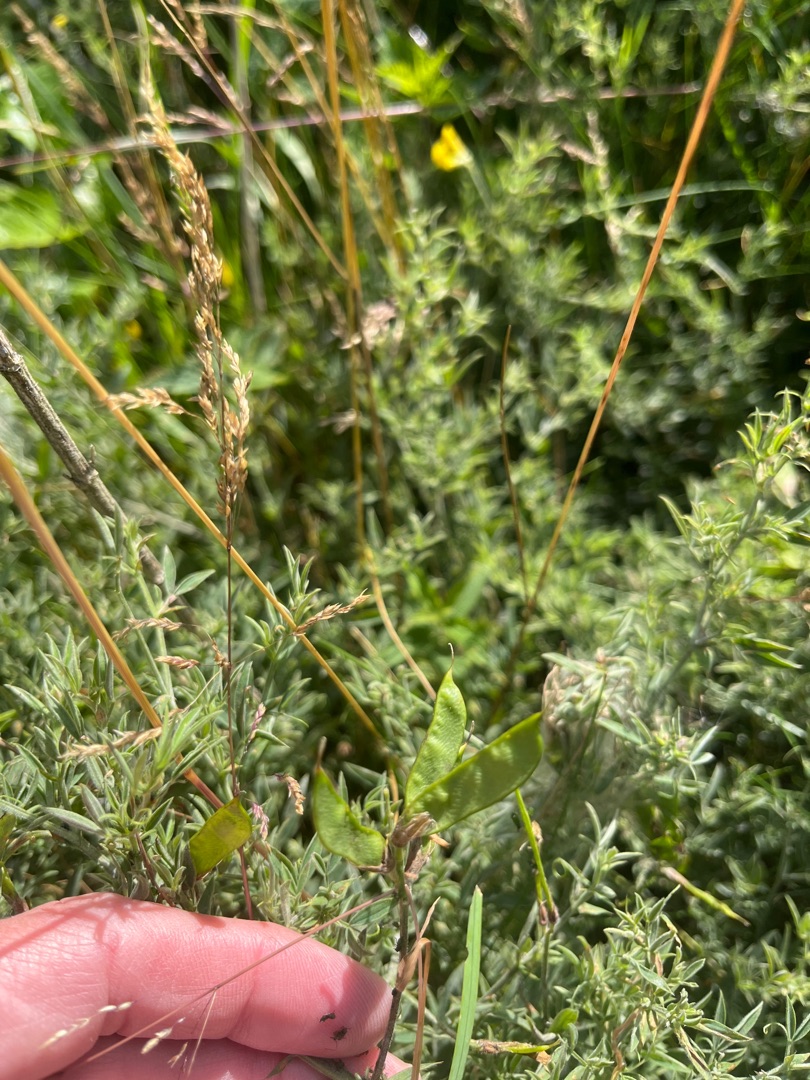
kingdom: Plantae
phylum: Tracheophyta
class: Magnoliopsida
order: Fabales
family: Fabaceae
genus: Lathyrus
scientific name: Lathyrus pratensis
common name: Gul fladbælg
